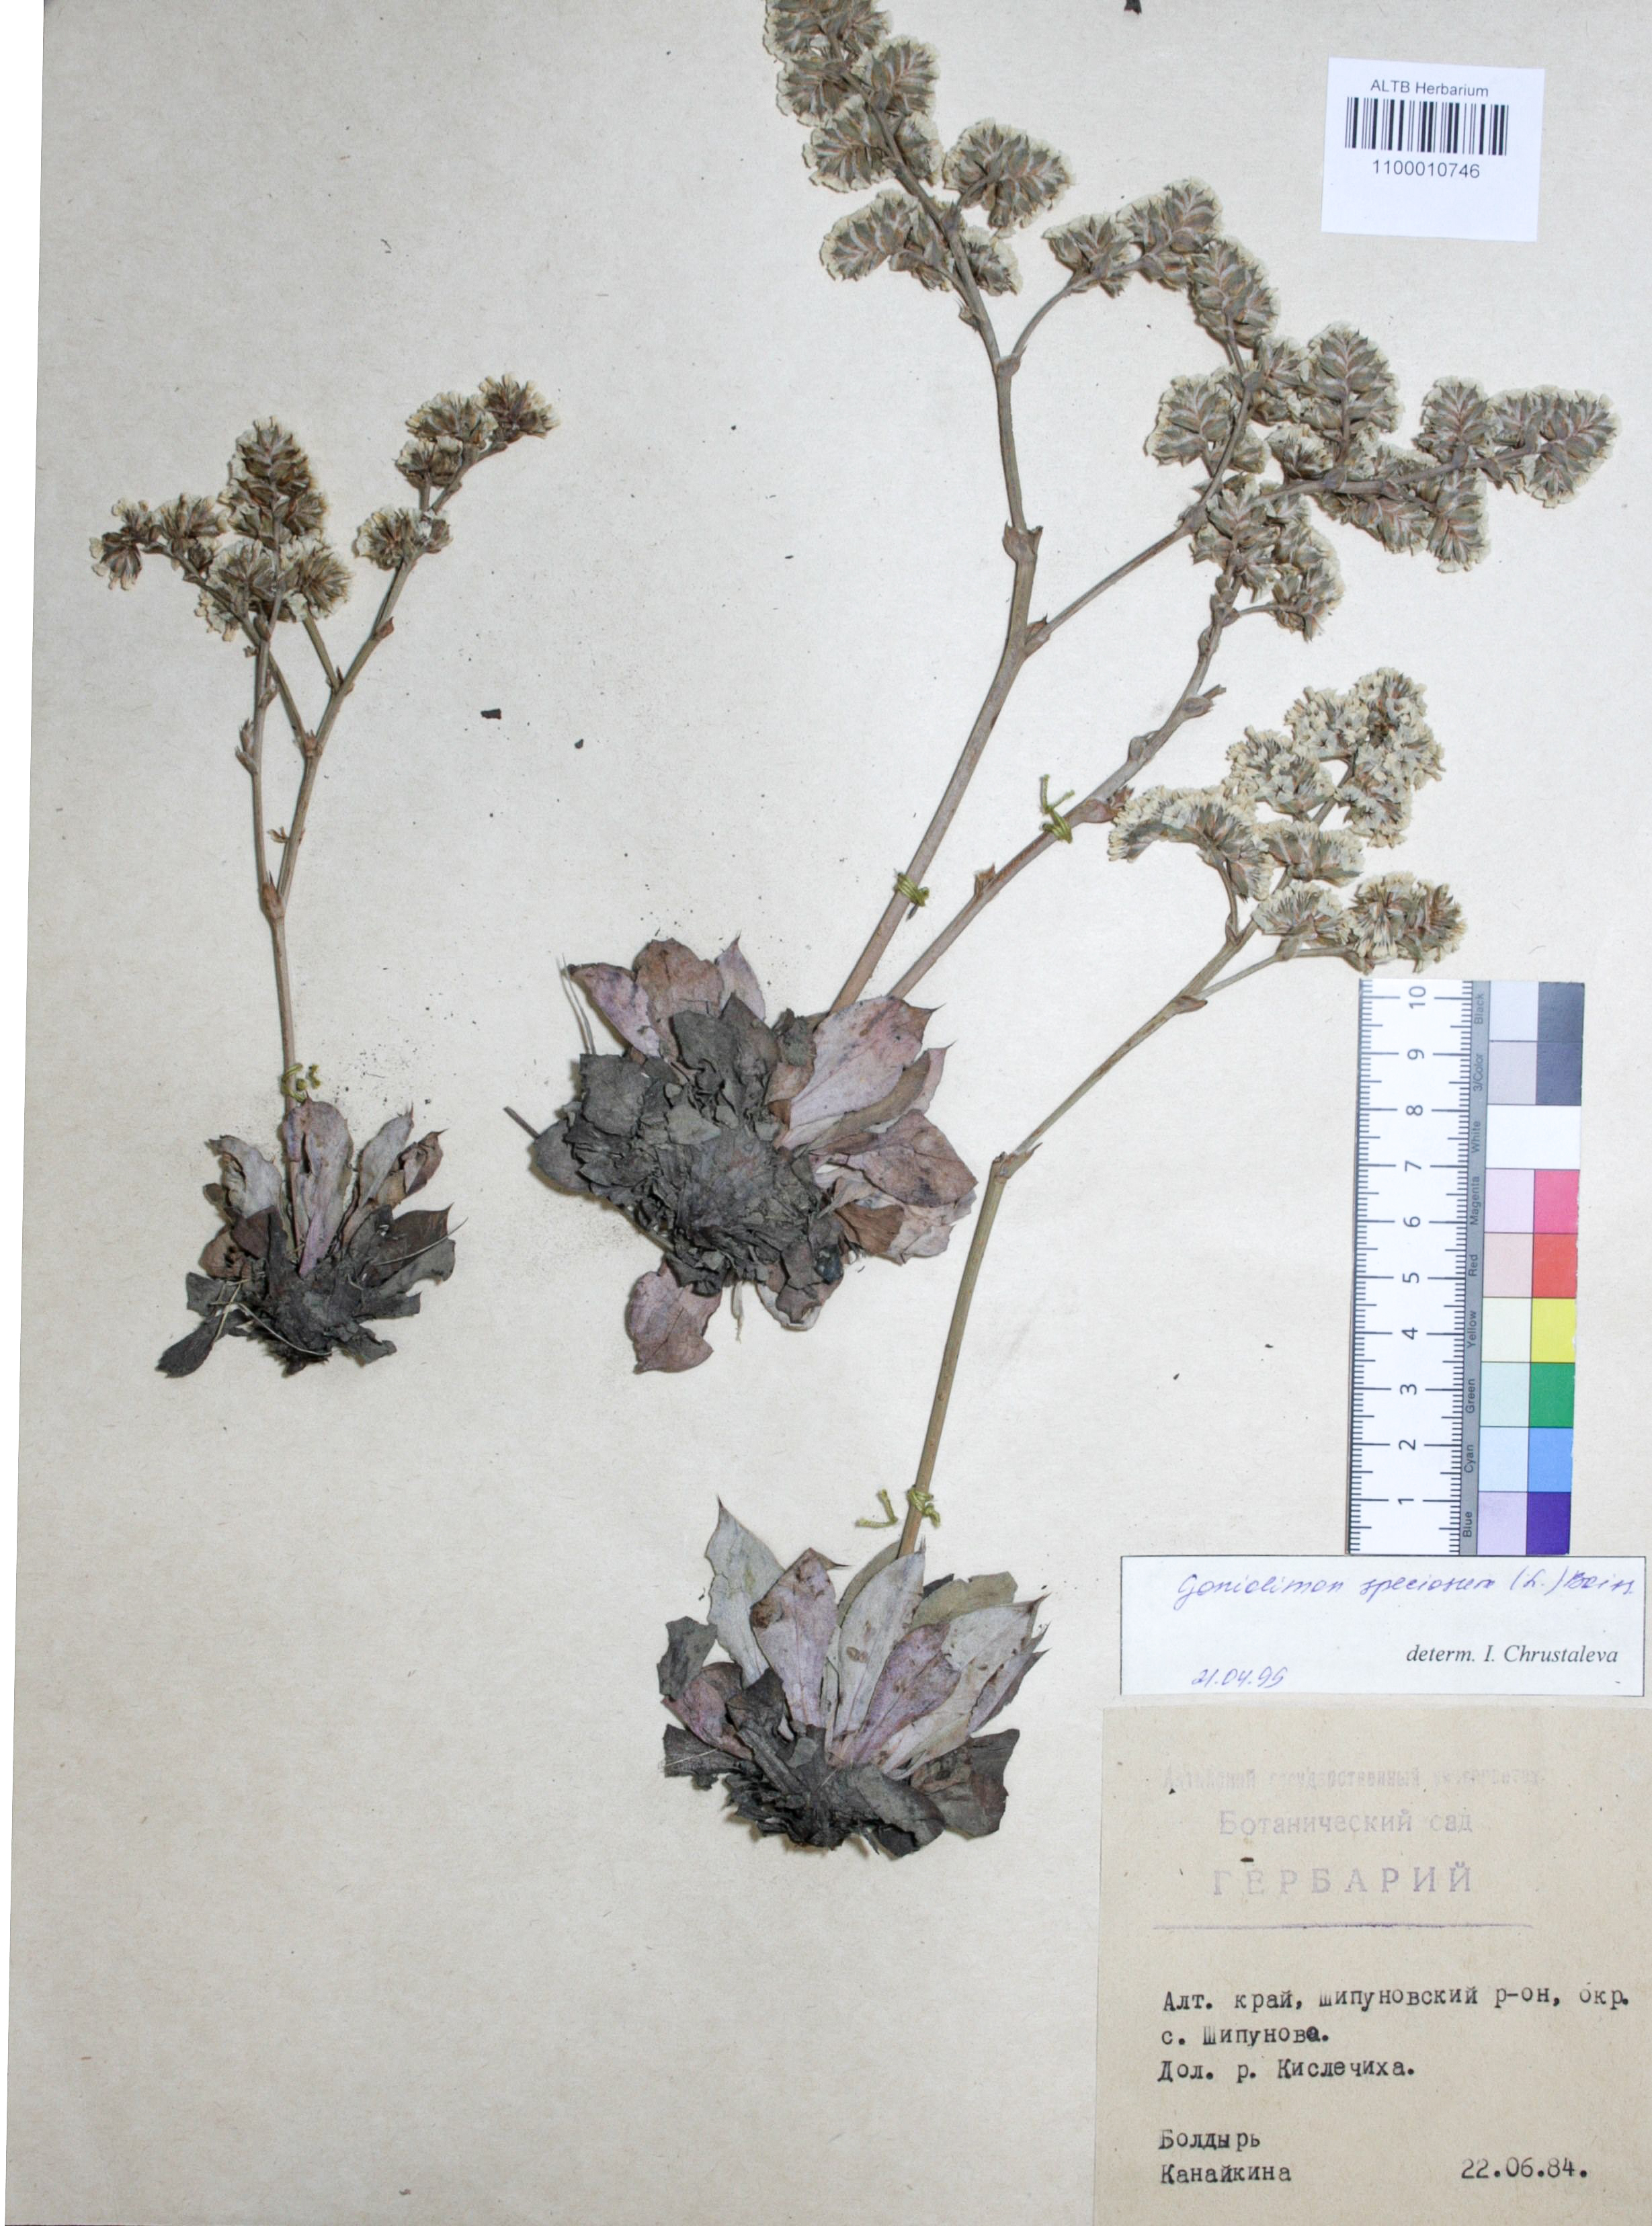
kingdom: Plantae
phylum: Tracheophyta
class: Magnoliopsida
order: Caryophyllales
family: Plumbaginaceae
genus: Goniolimon
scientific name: Goniolimon speciosum
